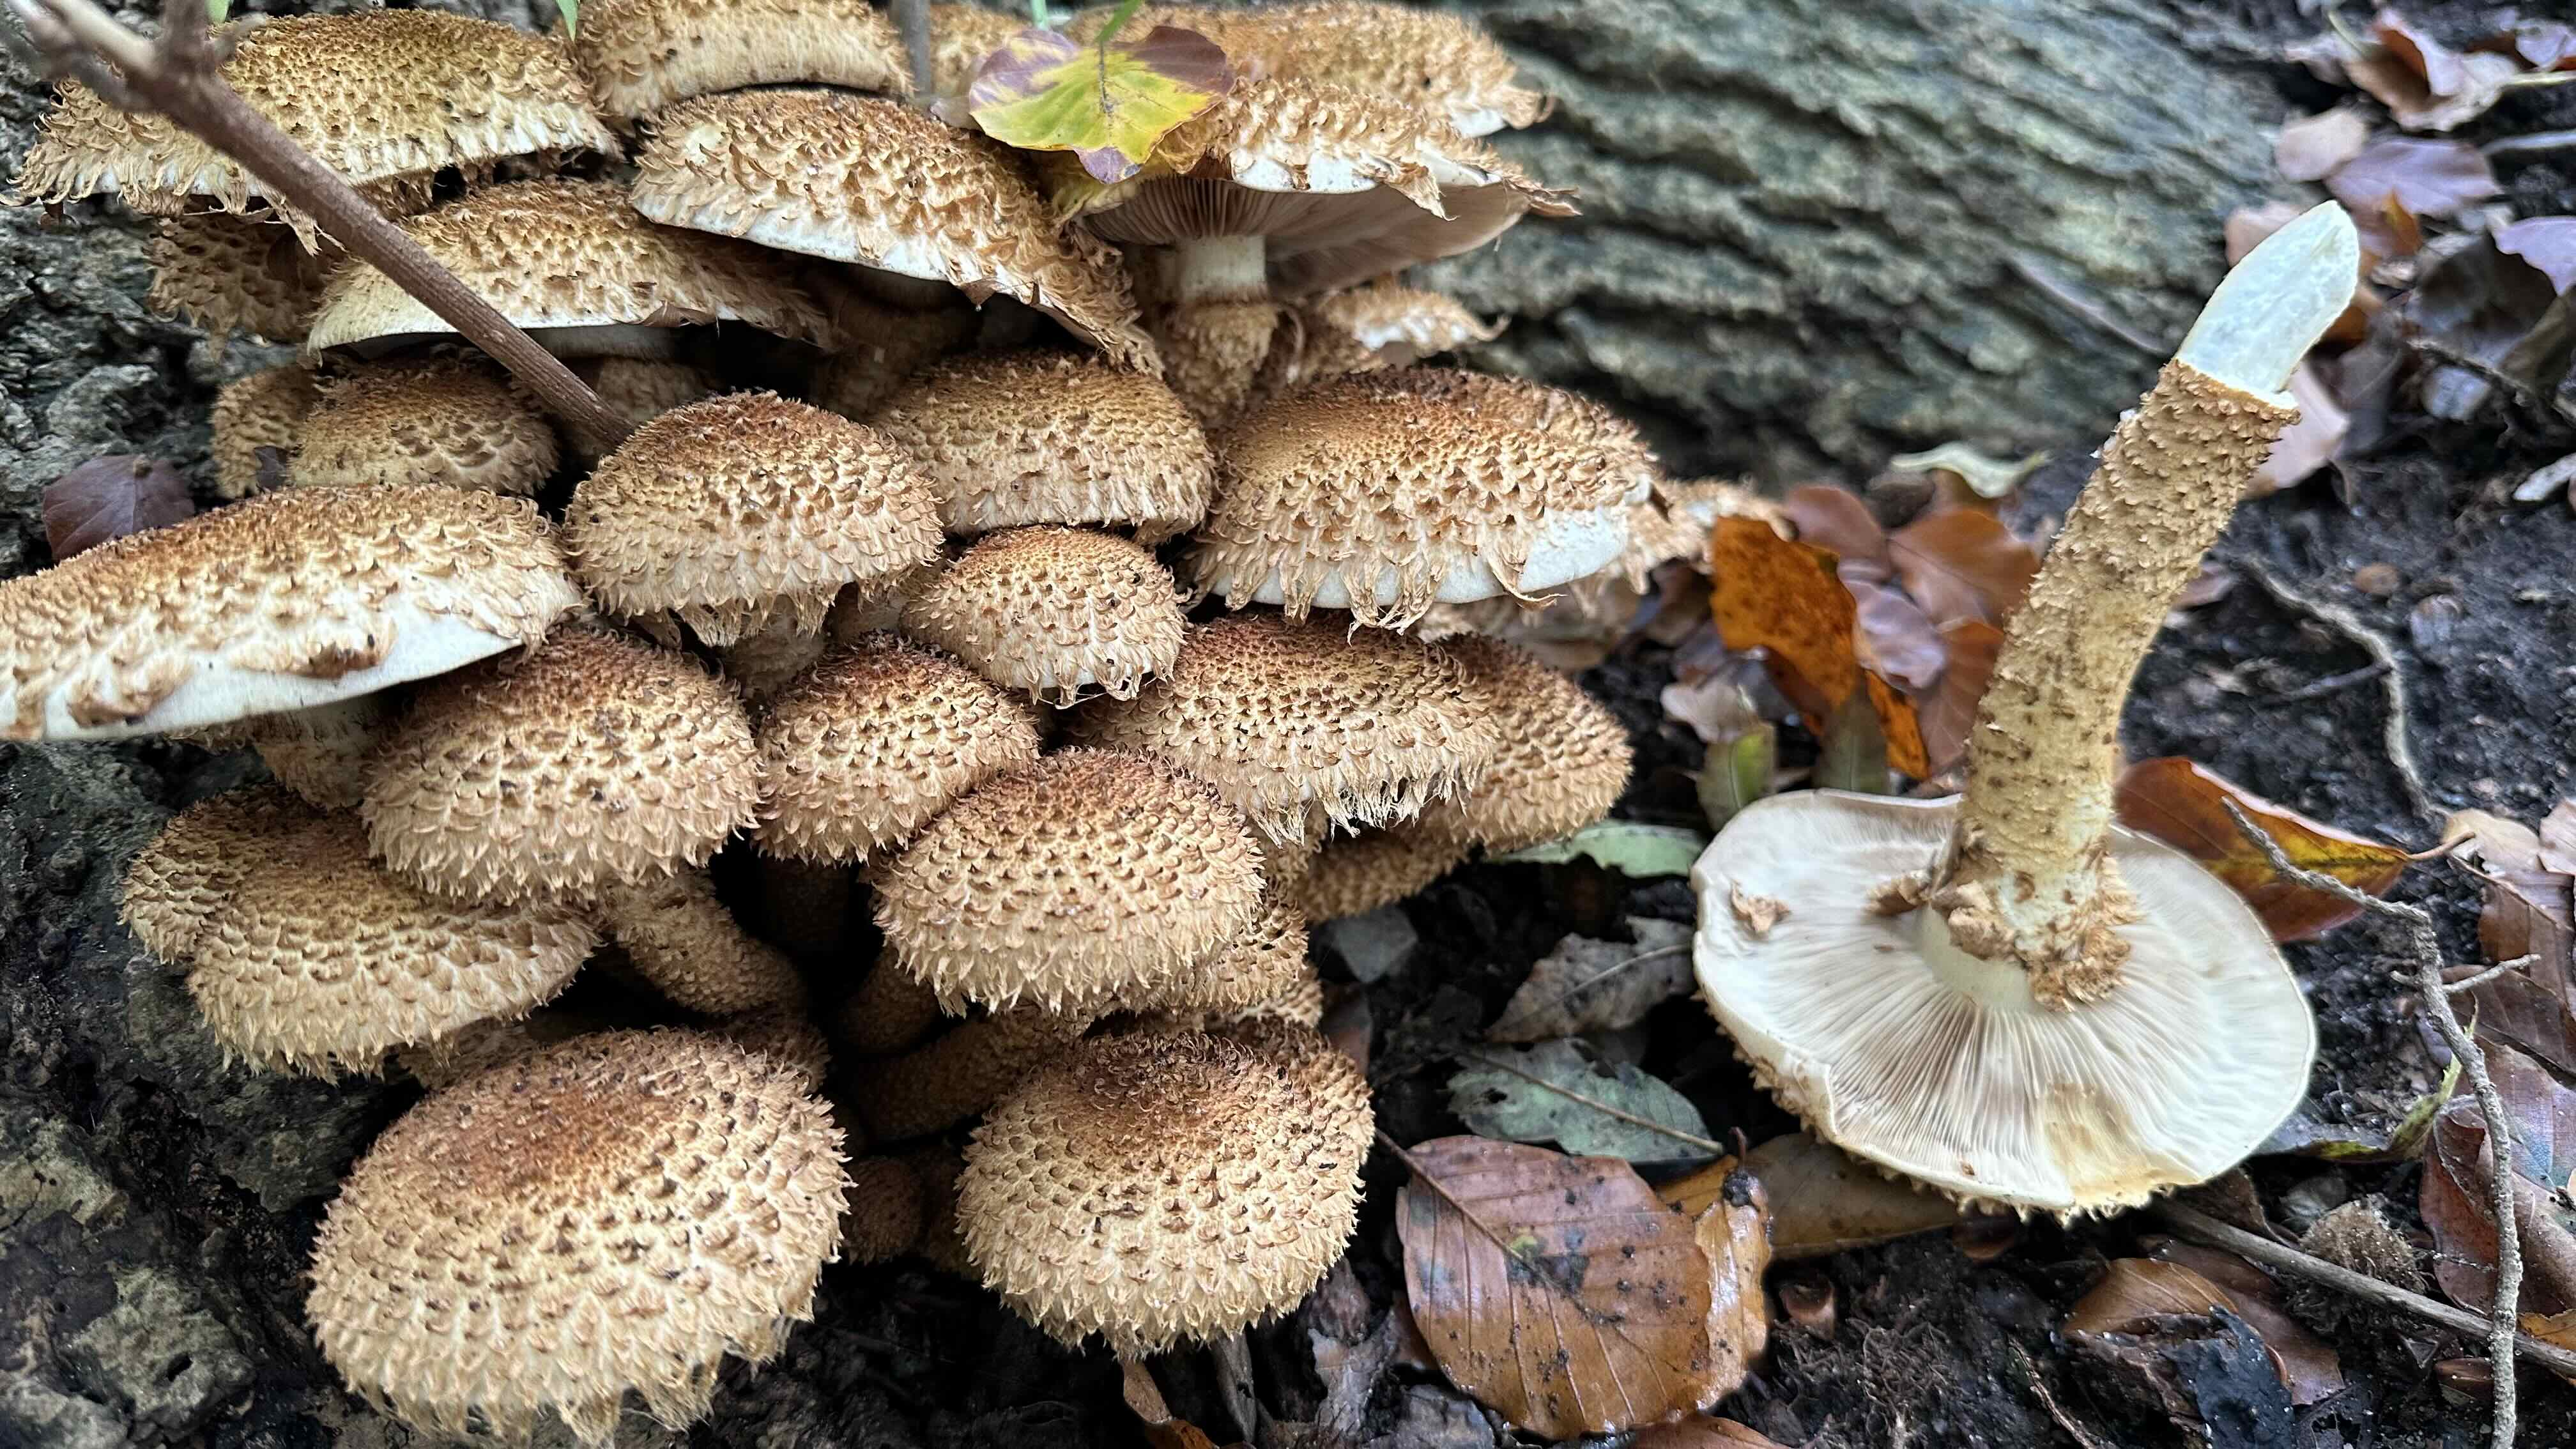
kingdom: Fungi
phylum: Basidiomycota
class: Agaricomycetes
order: Agaricales
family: Strophariaceae
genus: Pholiota
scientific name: Pholiota squarrosa
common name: krumskællet skælhat
